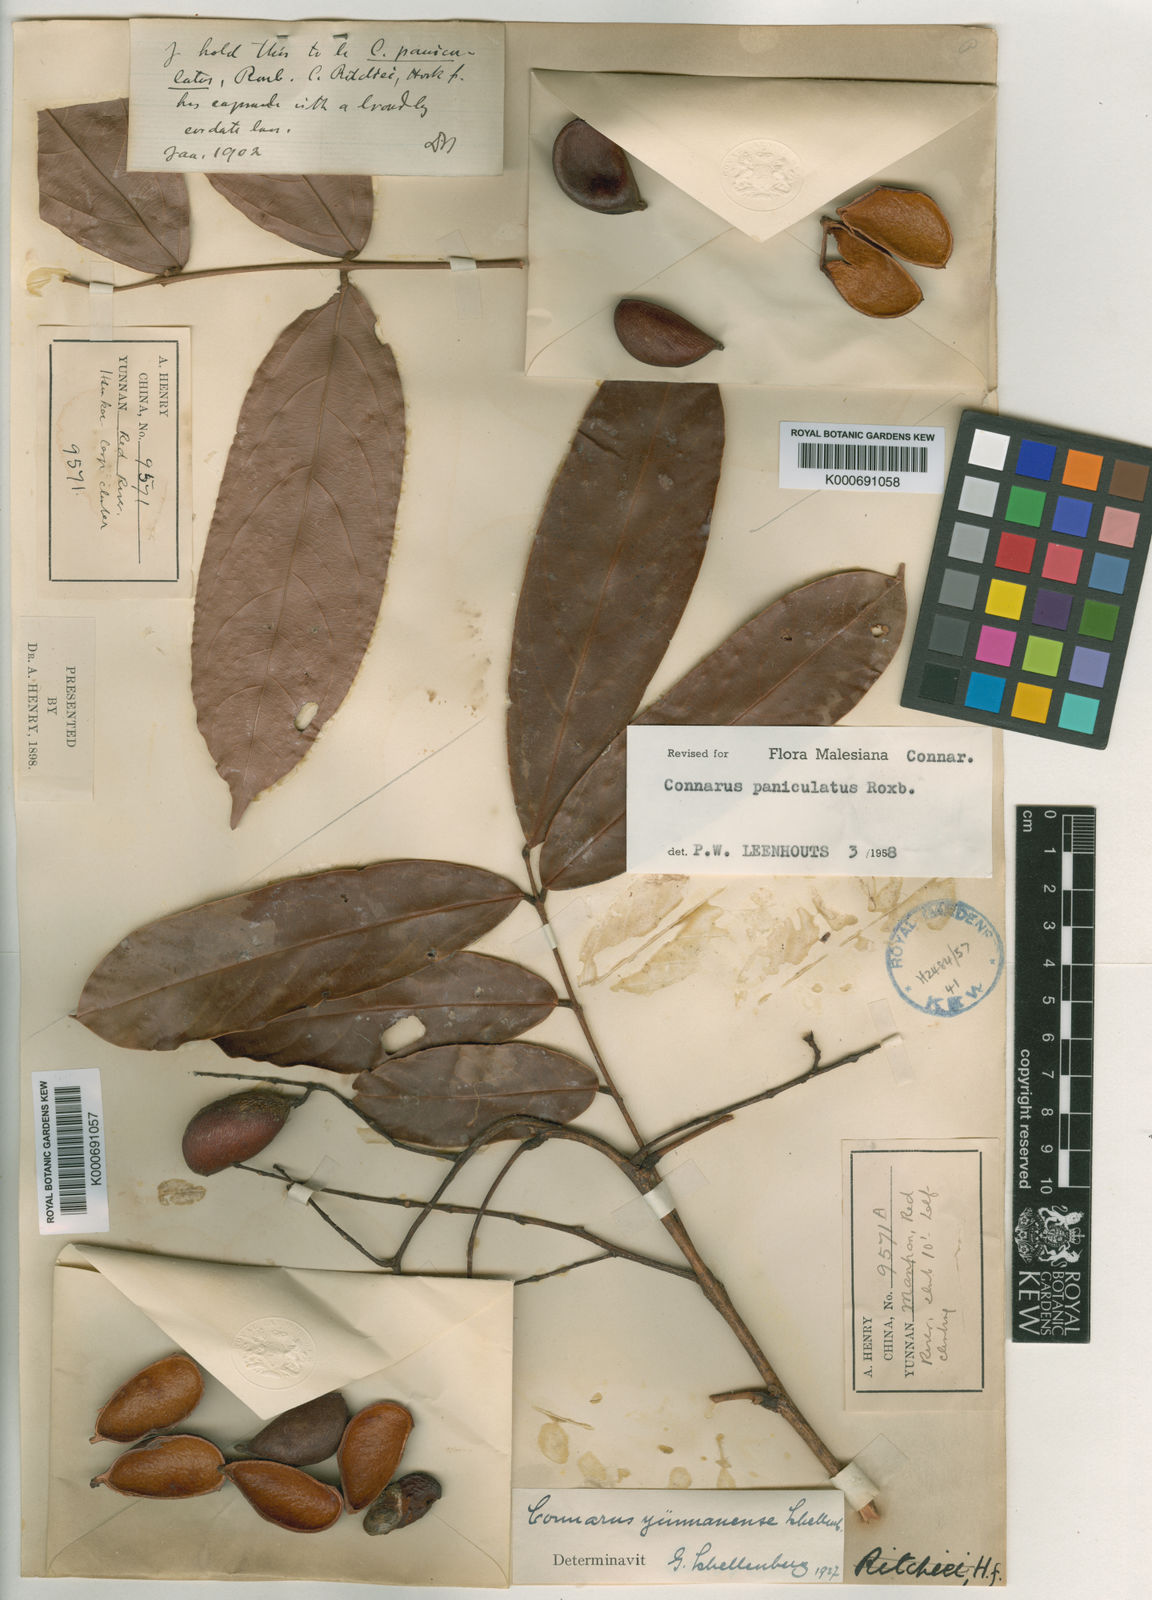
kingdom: Plantae
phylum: Tracheophyta
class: Magnoliopsida
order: Oxalidales
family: Connaraceae
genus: Connarus
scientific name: Connarus paniculatus
